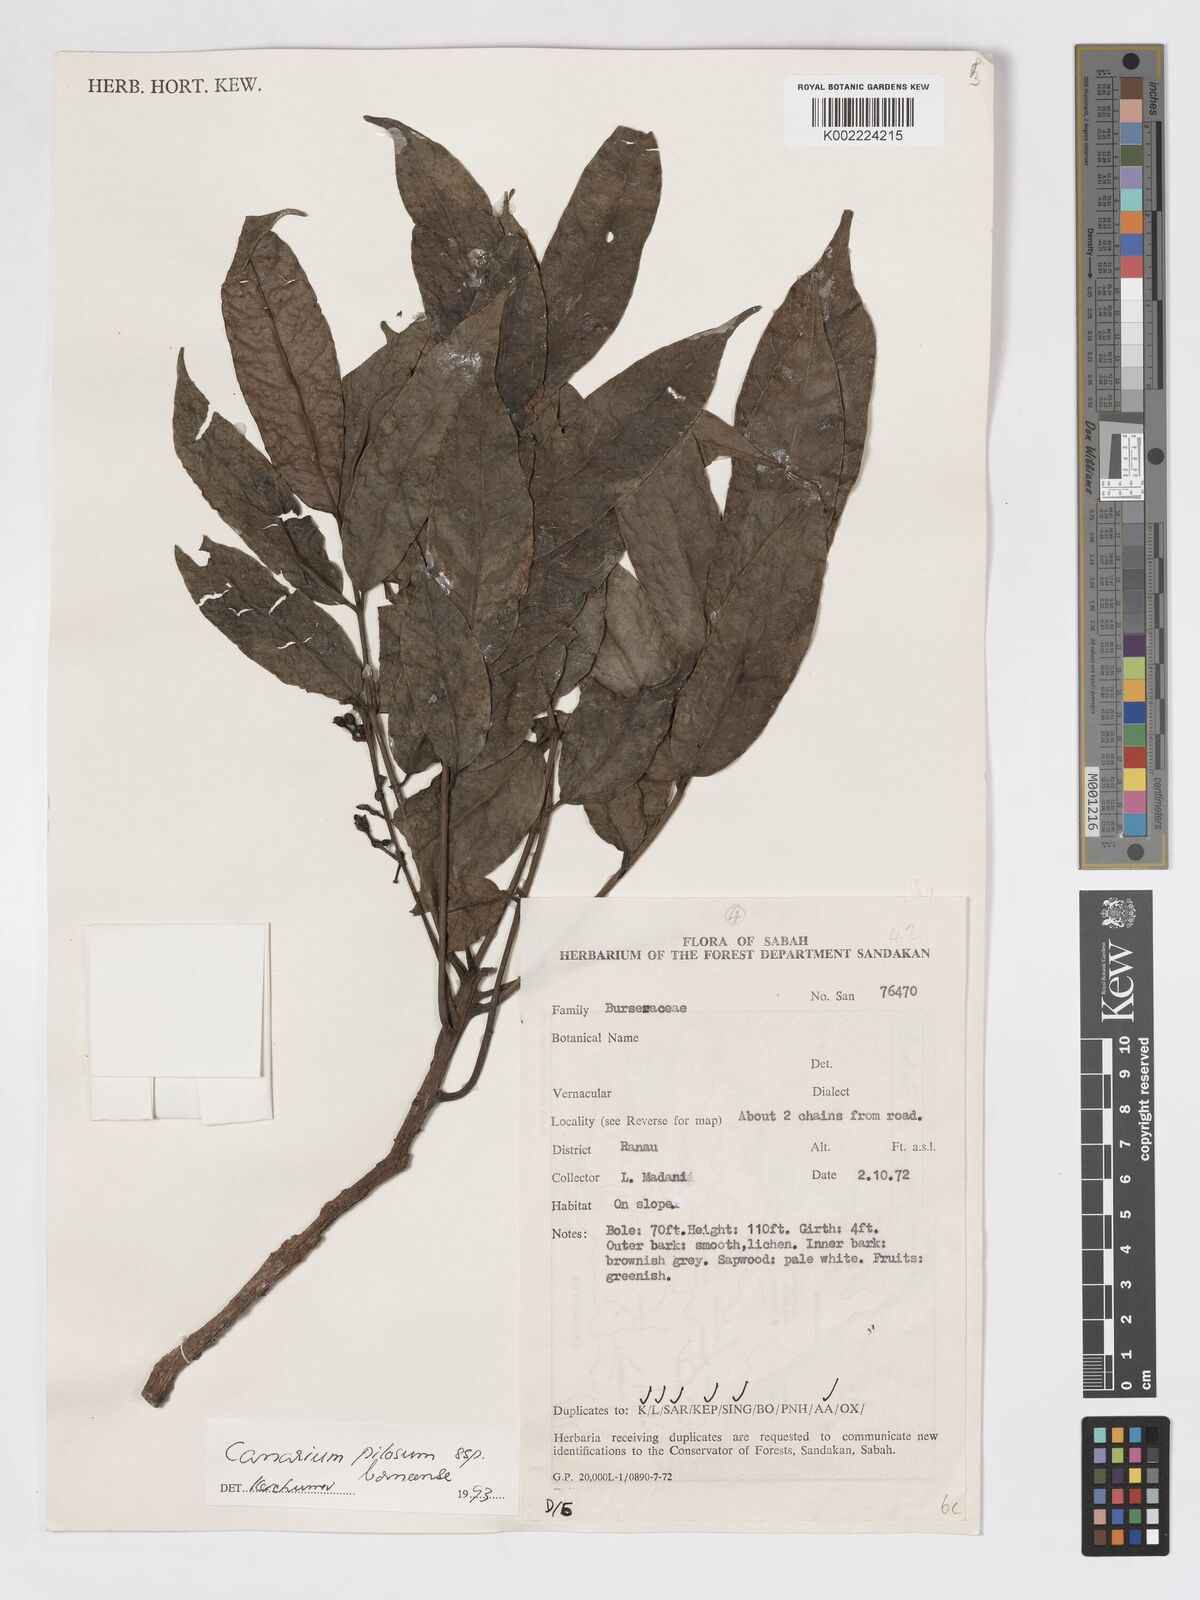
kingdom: Plantae
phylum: Tracheophyta
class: Magnoliopsida
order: Sapindales
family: Burseraceae
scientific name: Burseraceae
